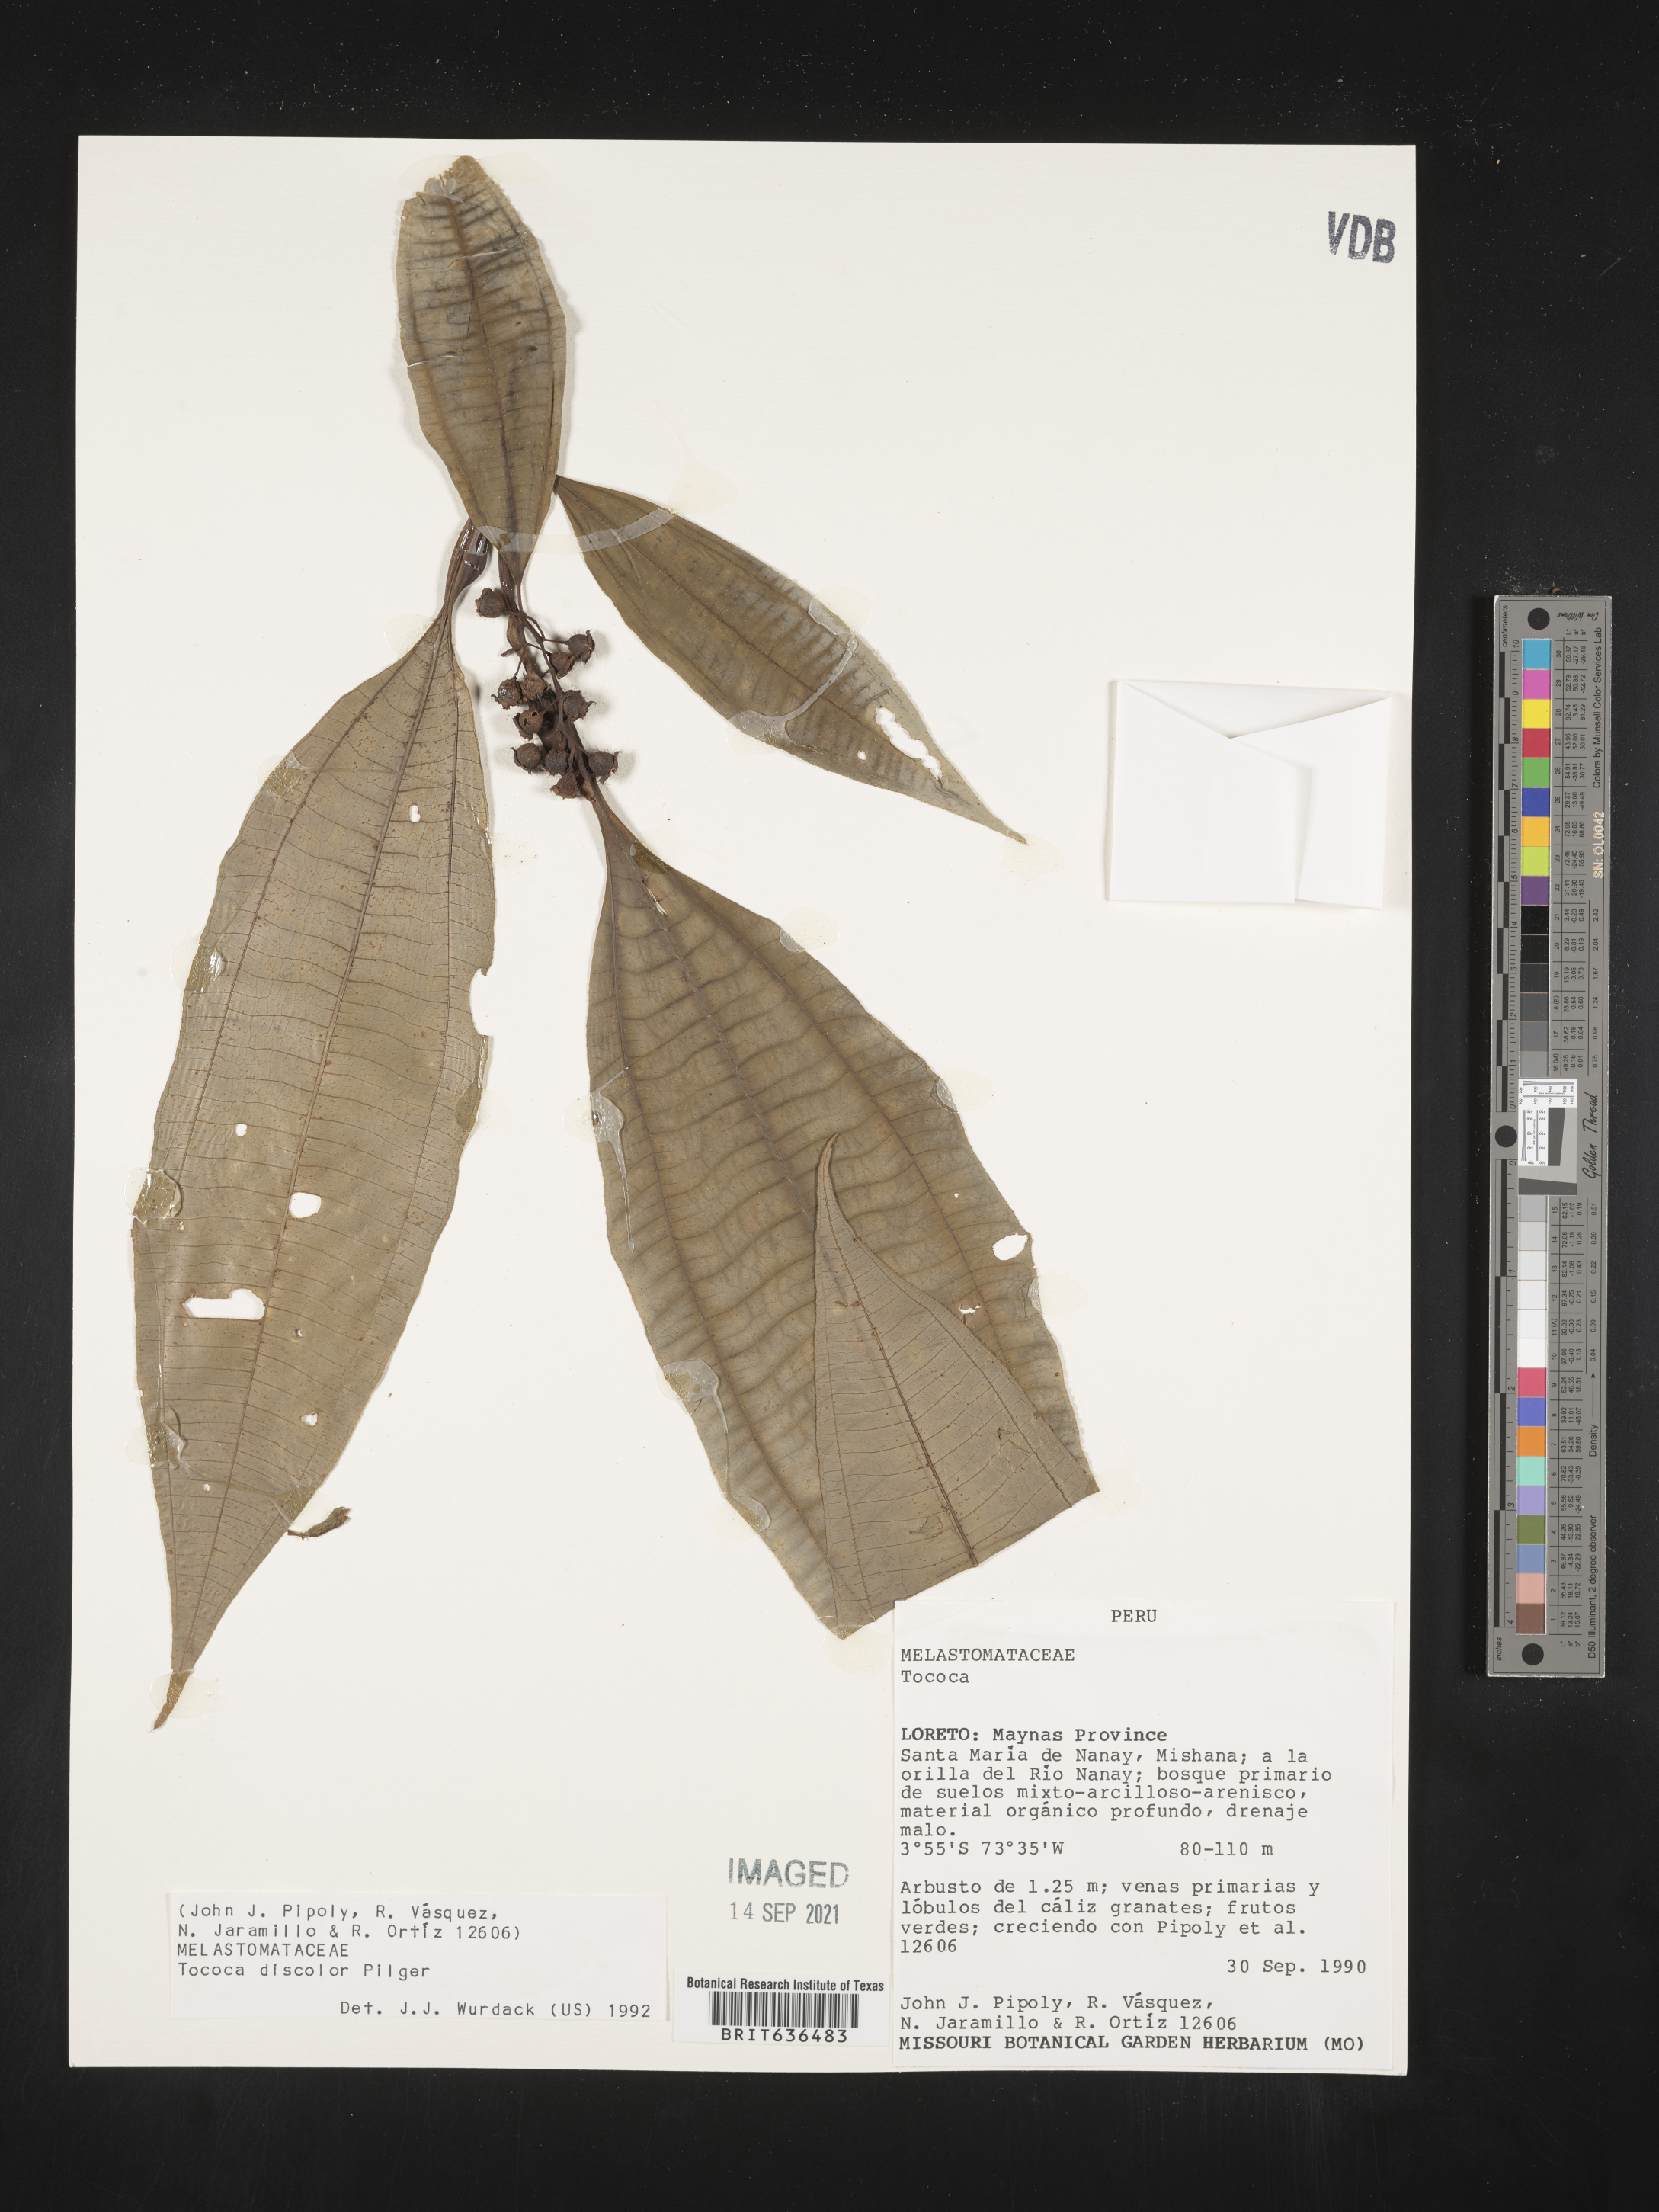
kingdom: Plantae
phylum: Tracheophyta
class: Magnoliopsida
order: Myrtales
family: Melastomataceae
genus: Tibouchina
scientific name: Tibouchina
